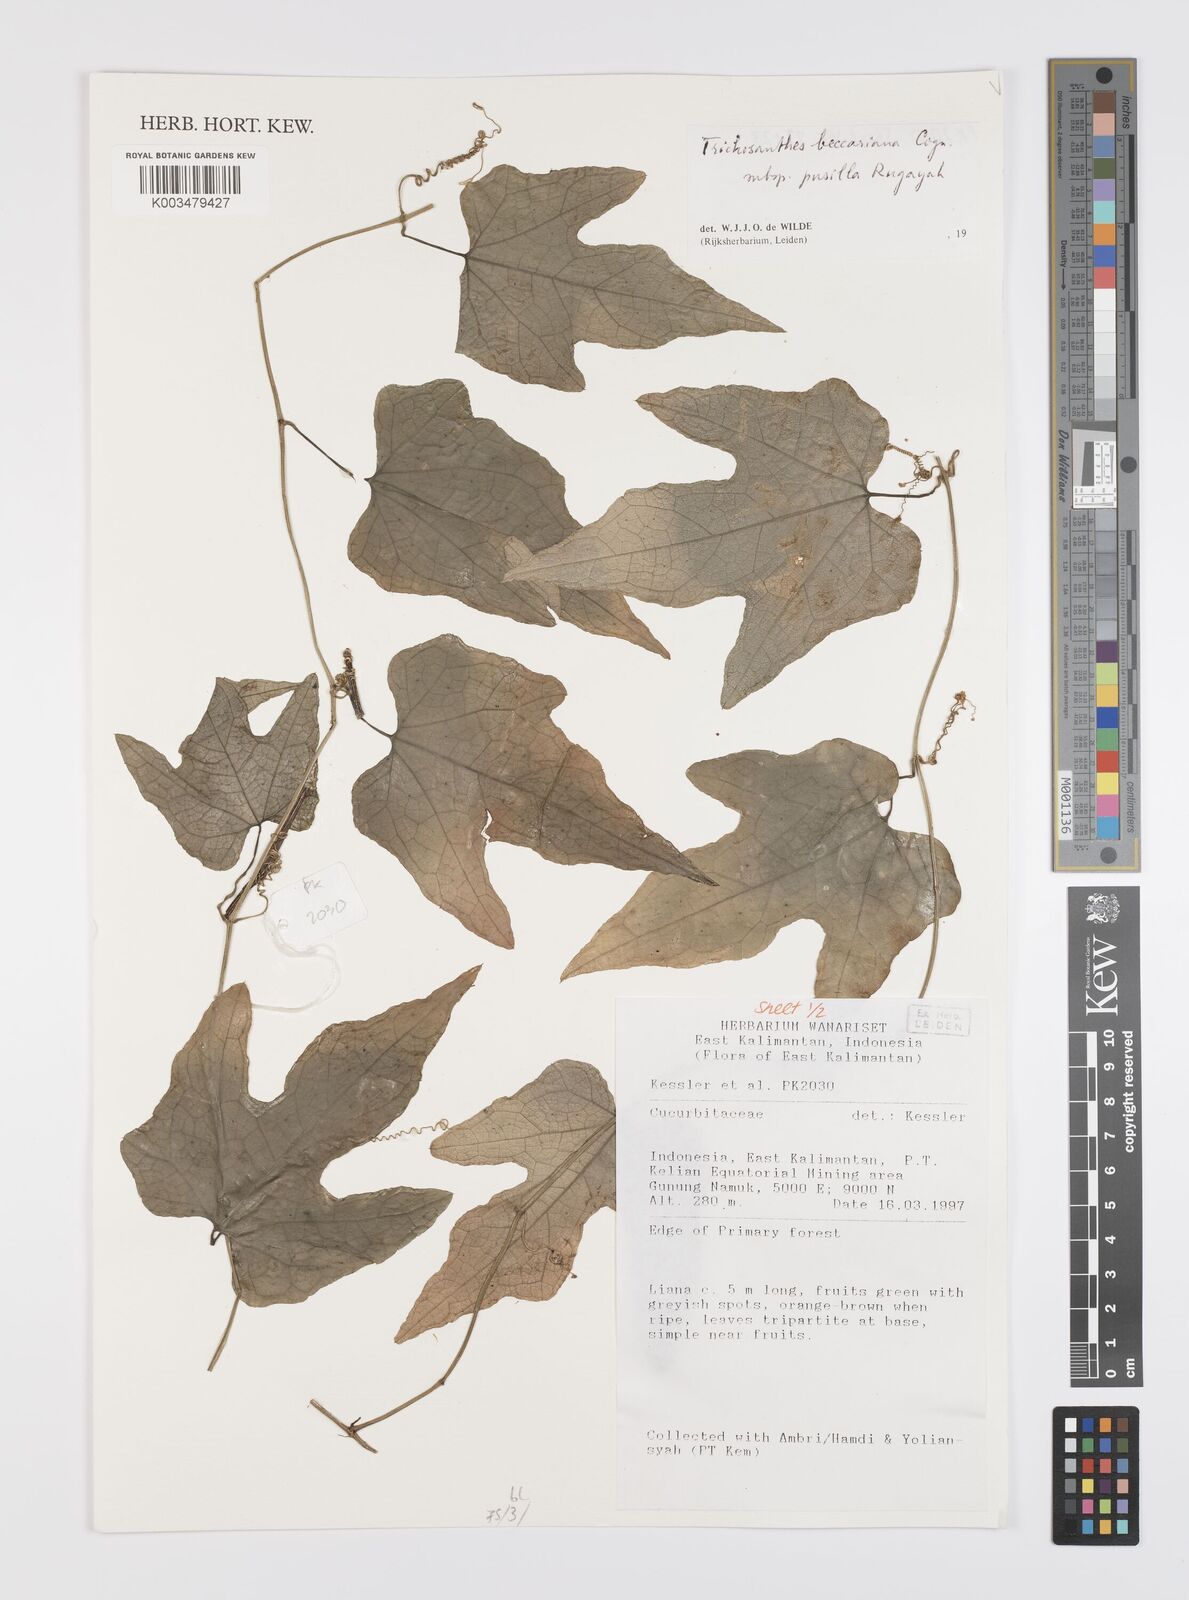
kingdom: Plantae
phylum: Tracheophyta
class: Magnoliopsida
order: Cucurbitales
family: Cucurbitaceae
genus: Trichosanthes
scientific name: Trichosanthes beccariana
